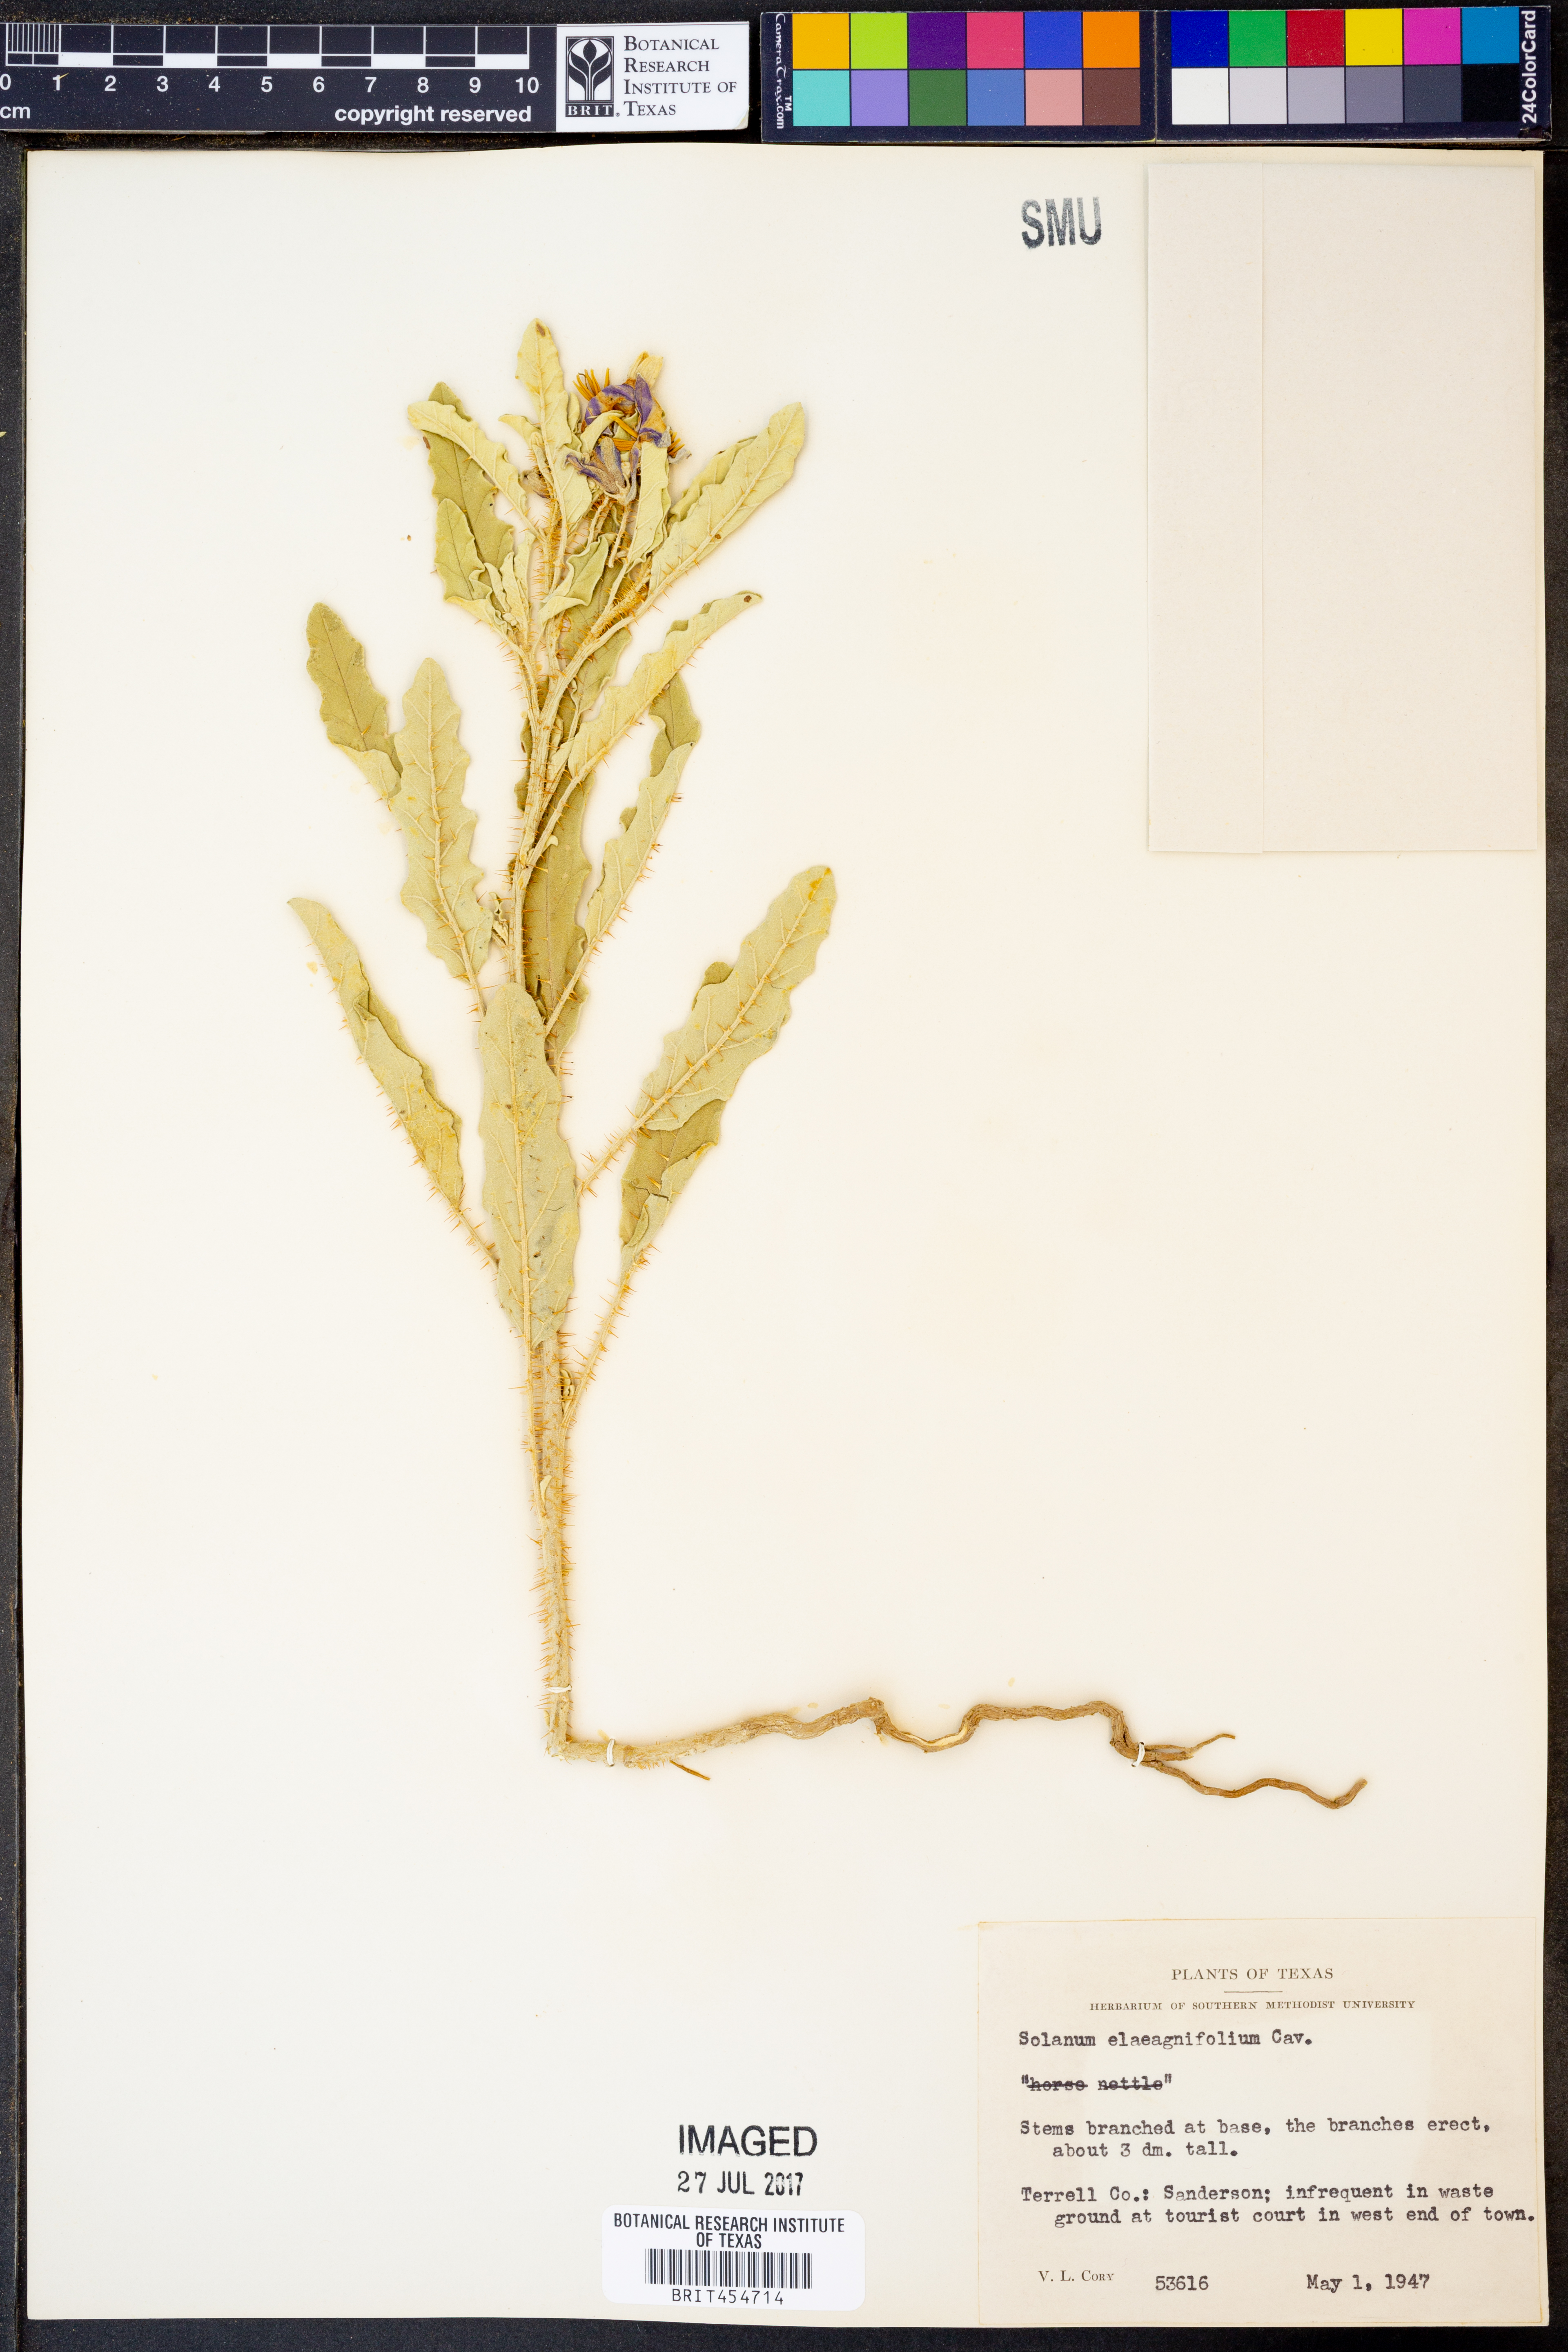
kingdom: Plantae
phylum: Tracheophyta
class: Magnoliopsida
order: Solanales
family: Solanaceae
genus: Solanum
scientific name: Solanum elaeagnifolium
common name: Silverleaf nightshade
